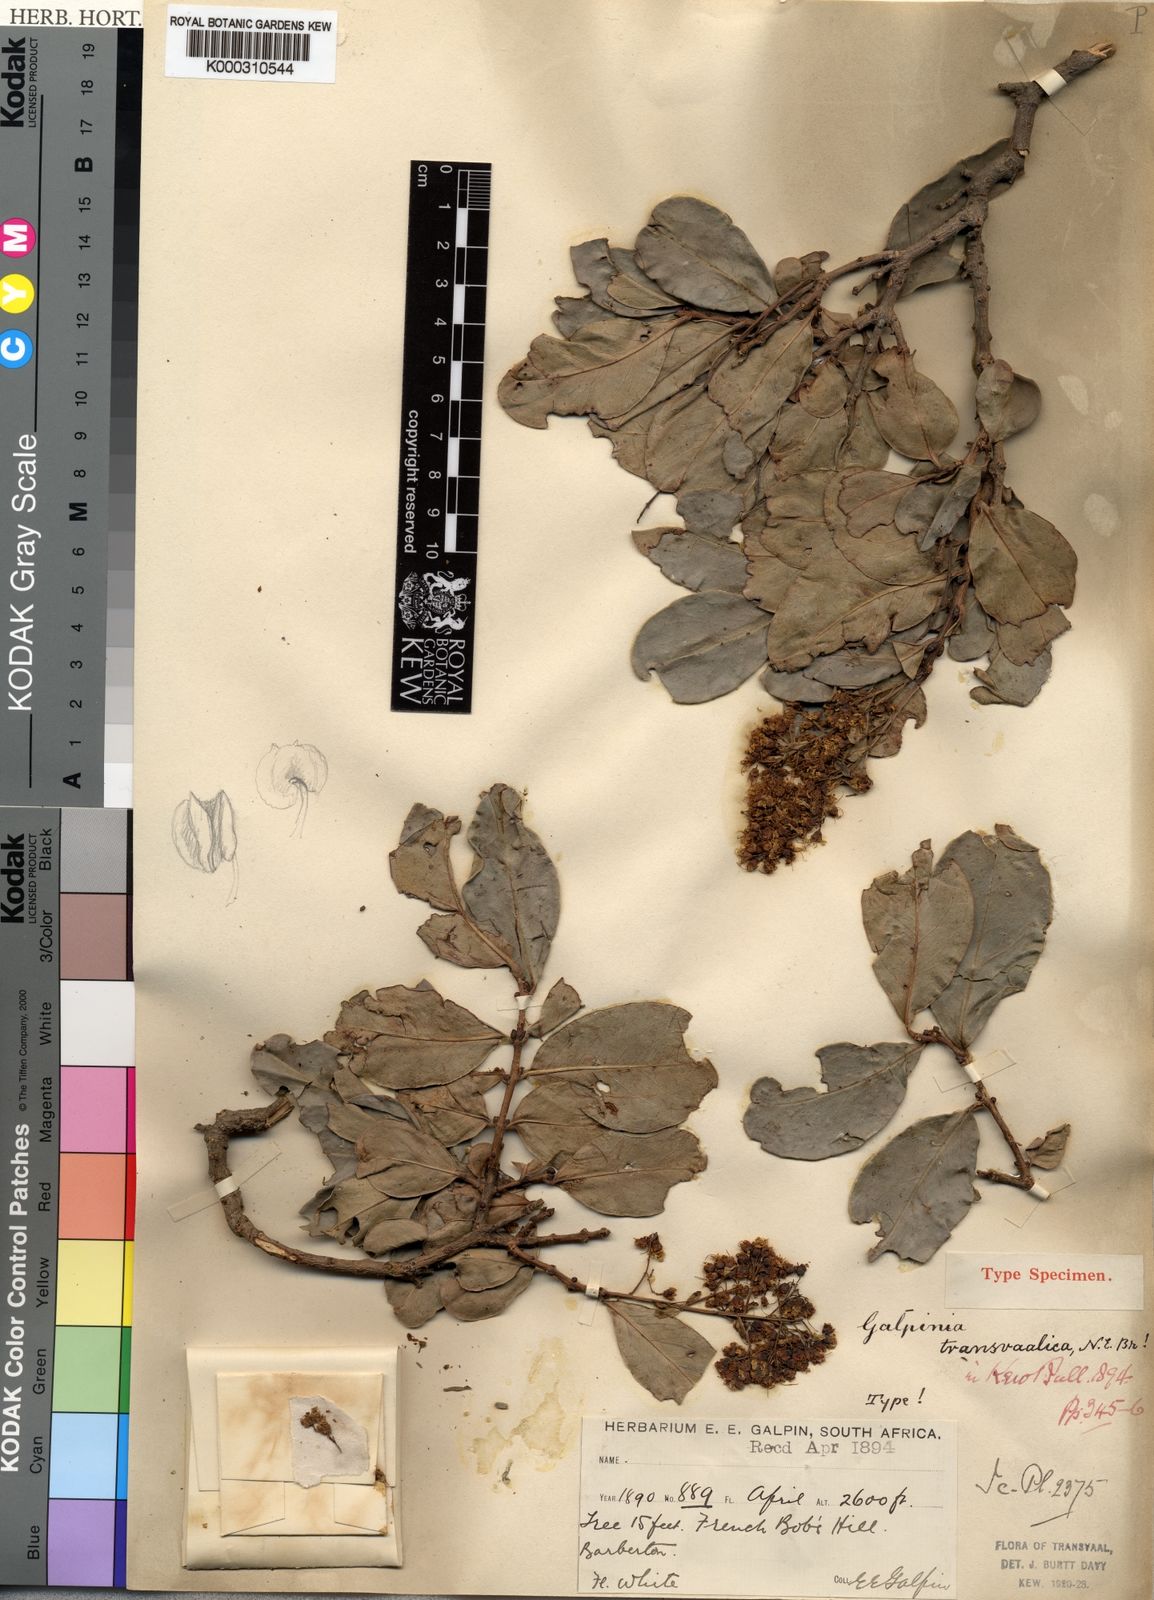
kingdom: Plantae
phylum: Tracheophyta
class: Magnoliopsida
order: Myrtales
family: Lythraceae
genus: Galpinia
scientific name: Galpinia transvaalica
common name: Wild pride of india
